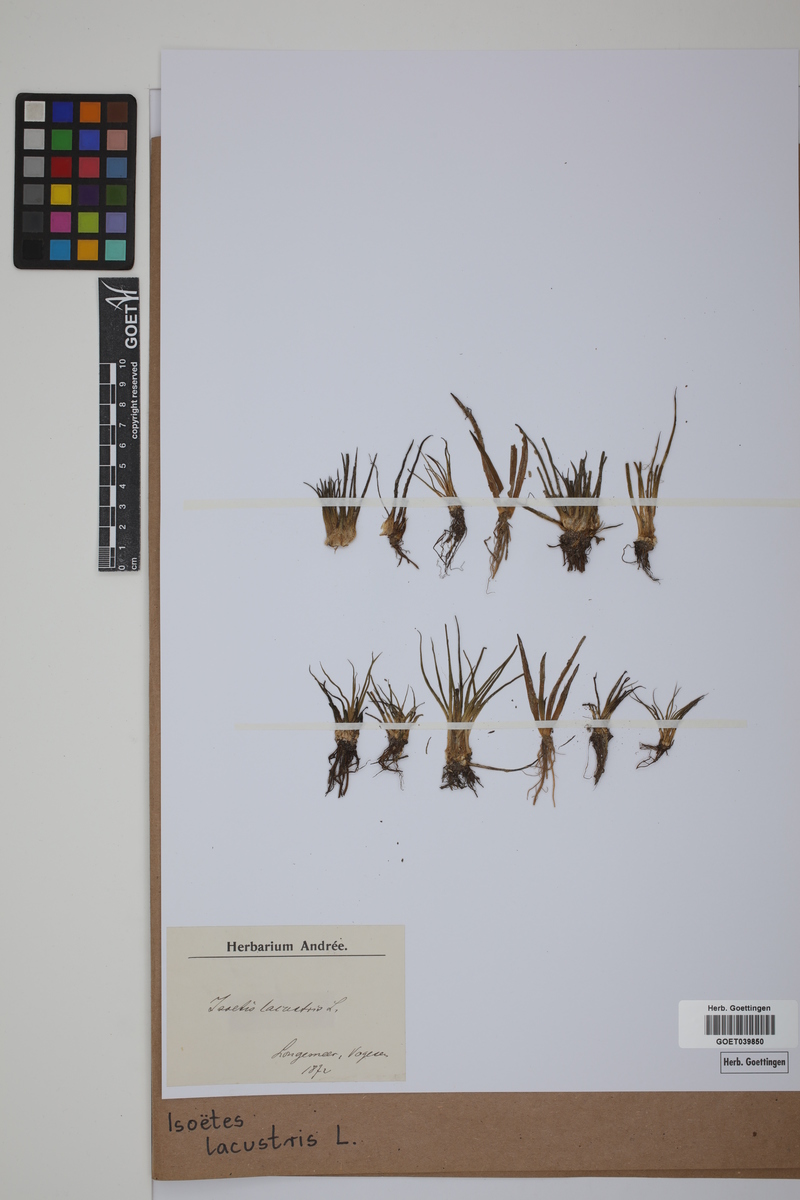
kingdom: Plantae
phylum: Tracheophyta
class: Lycopodiopsida
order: Isoetales
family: Isoetaceae
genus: Isoetes
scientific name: Isoetes lacustris
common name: Common quillwort
